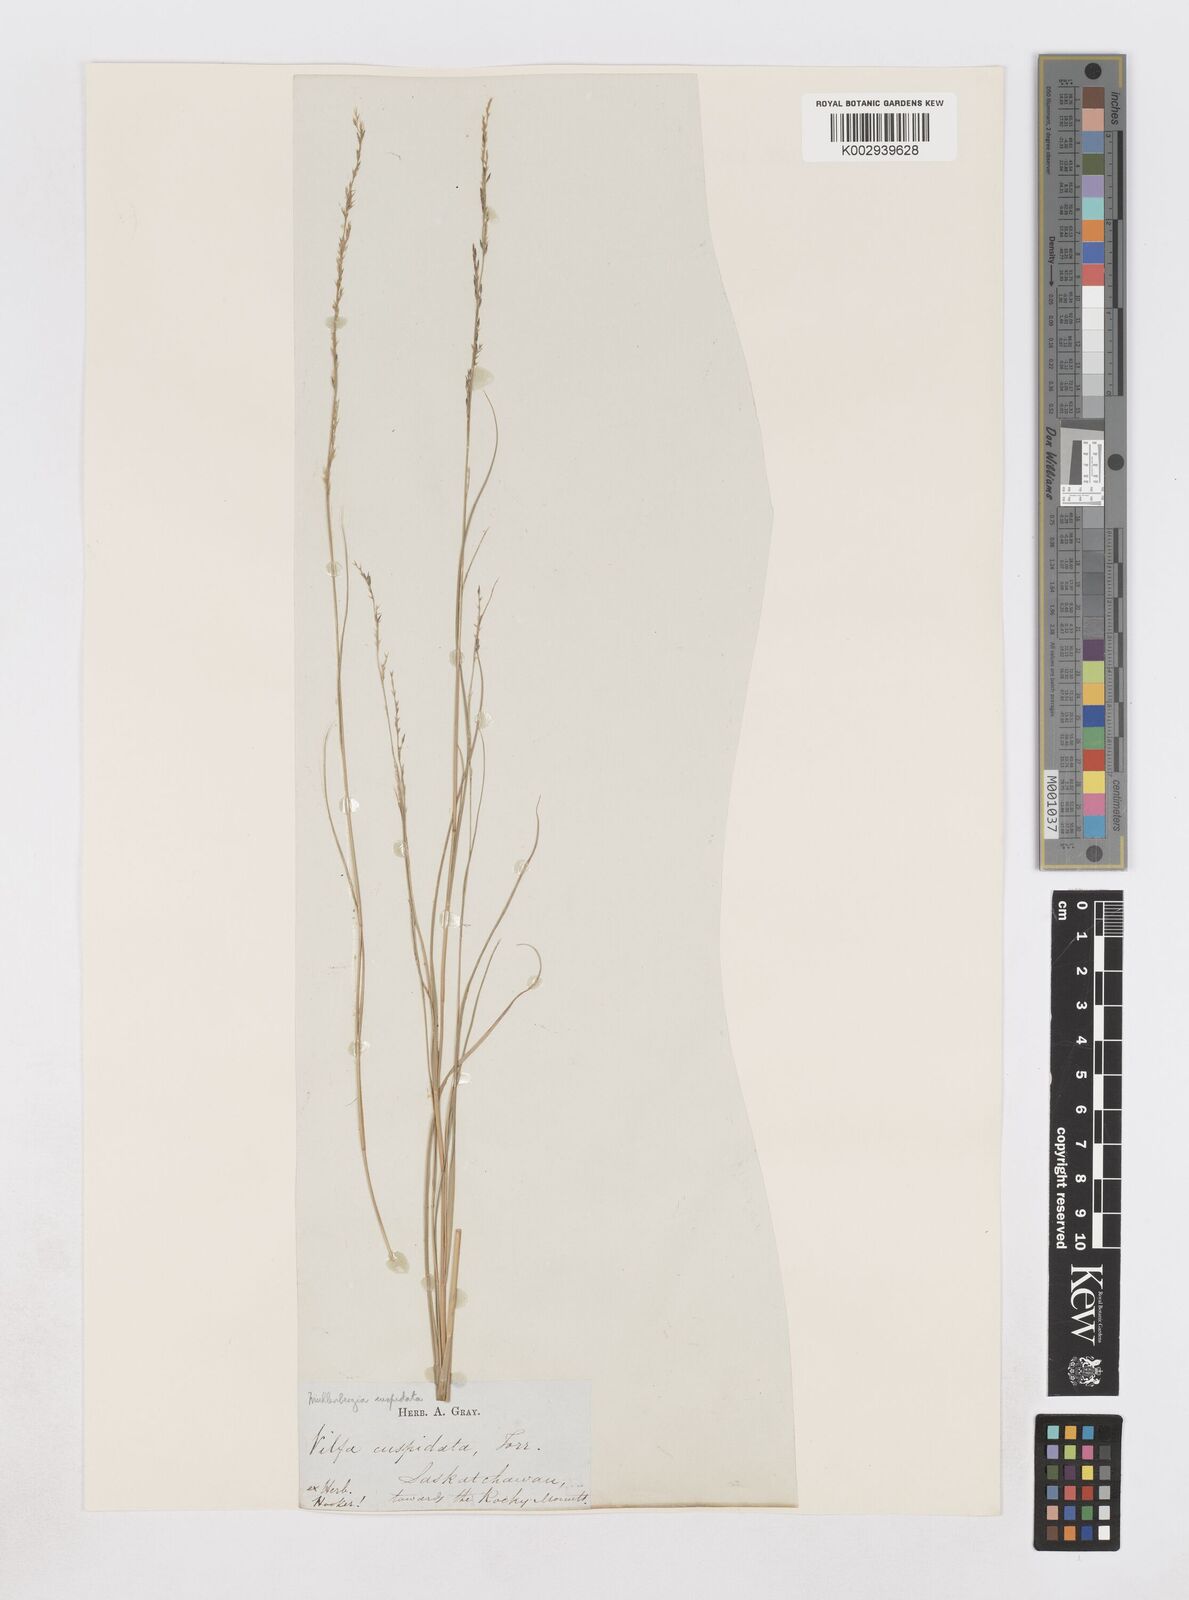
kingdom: Plantae
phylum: Tracheophyta
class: Liliopsida
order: Poales
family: Poaceae
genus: Muhlenbergia
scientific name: Muhlenbergia cuspidata
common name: Plains muhly
